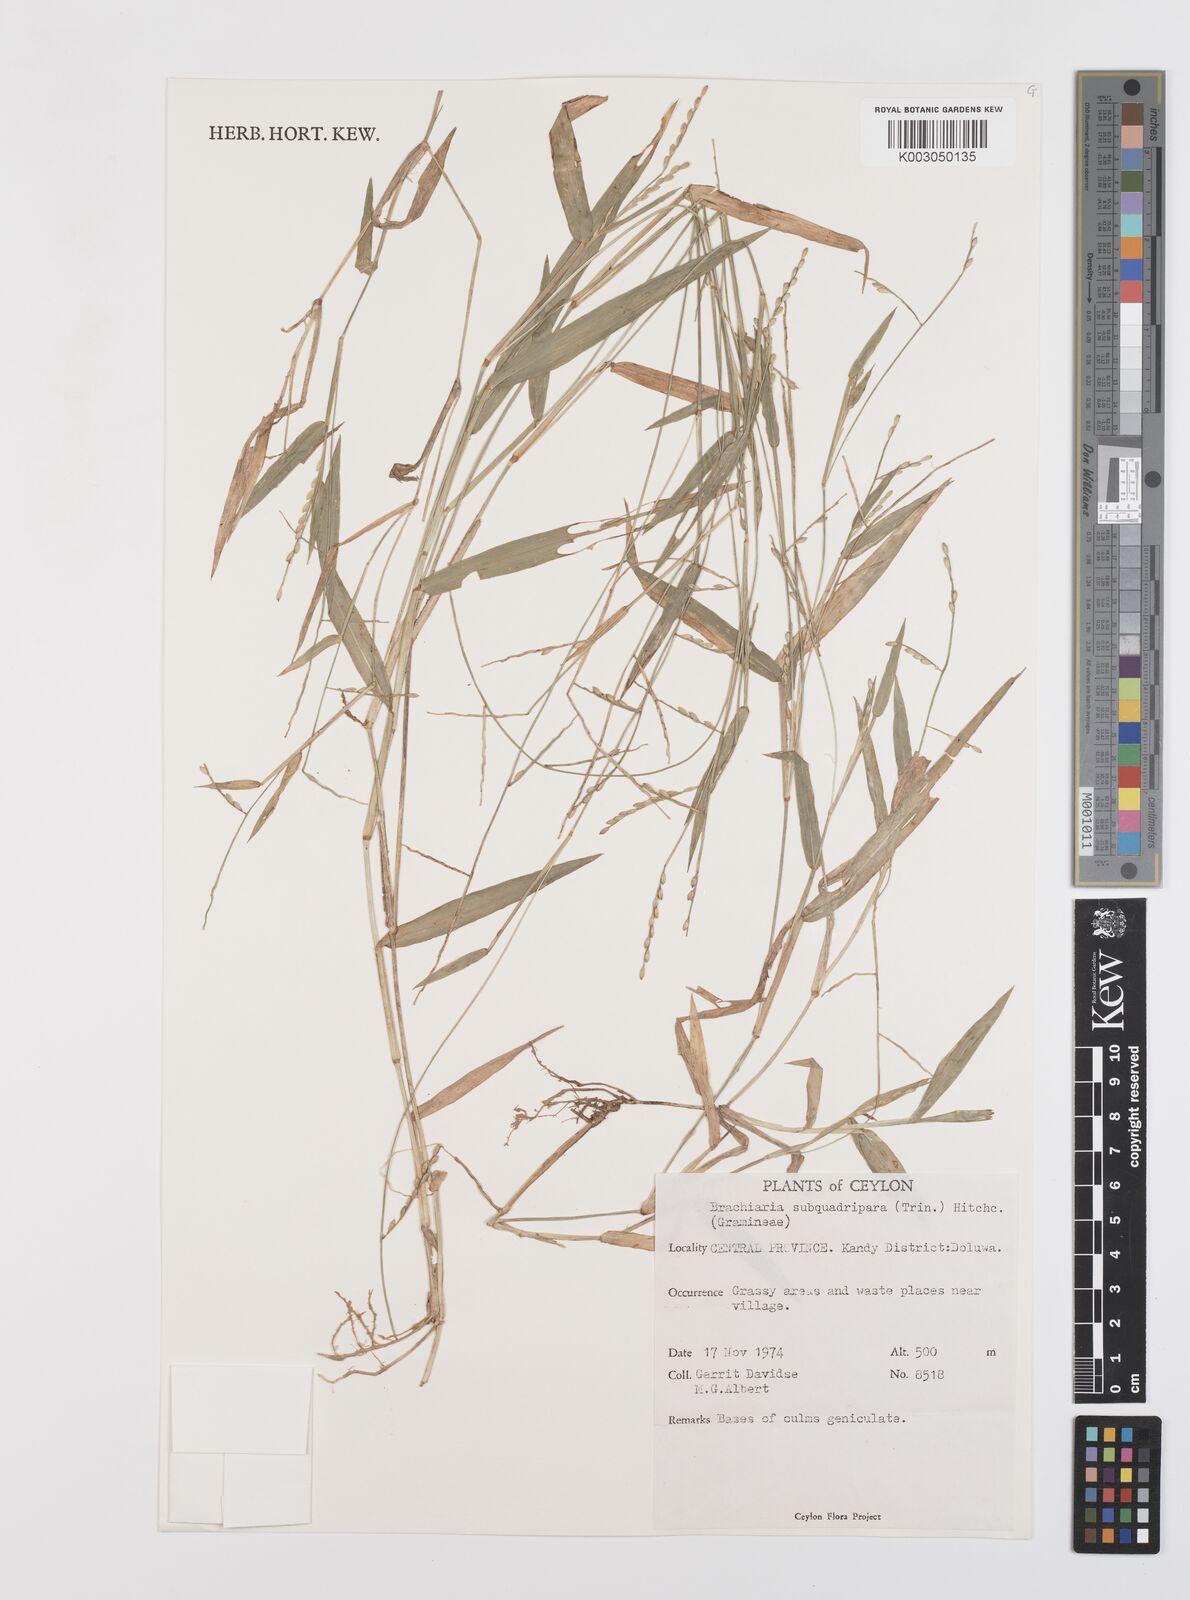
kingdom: Plantae
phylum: Tracheophyta
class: Liliopsida
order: Poales
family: Poaceae
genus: Urochloa
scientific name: Urochloa subquadripara
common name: Armgrass millet
